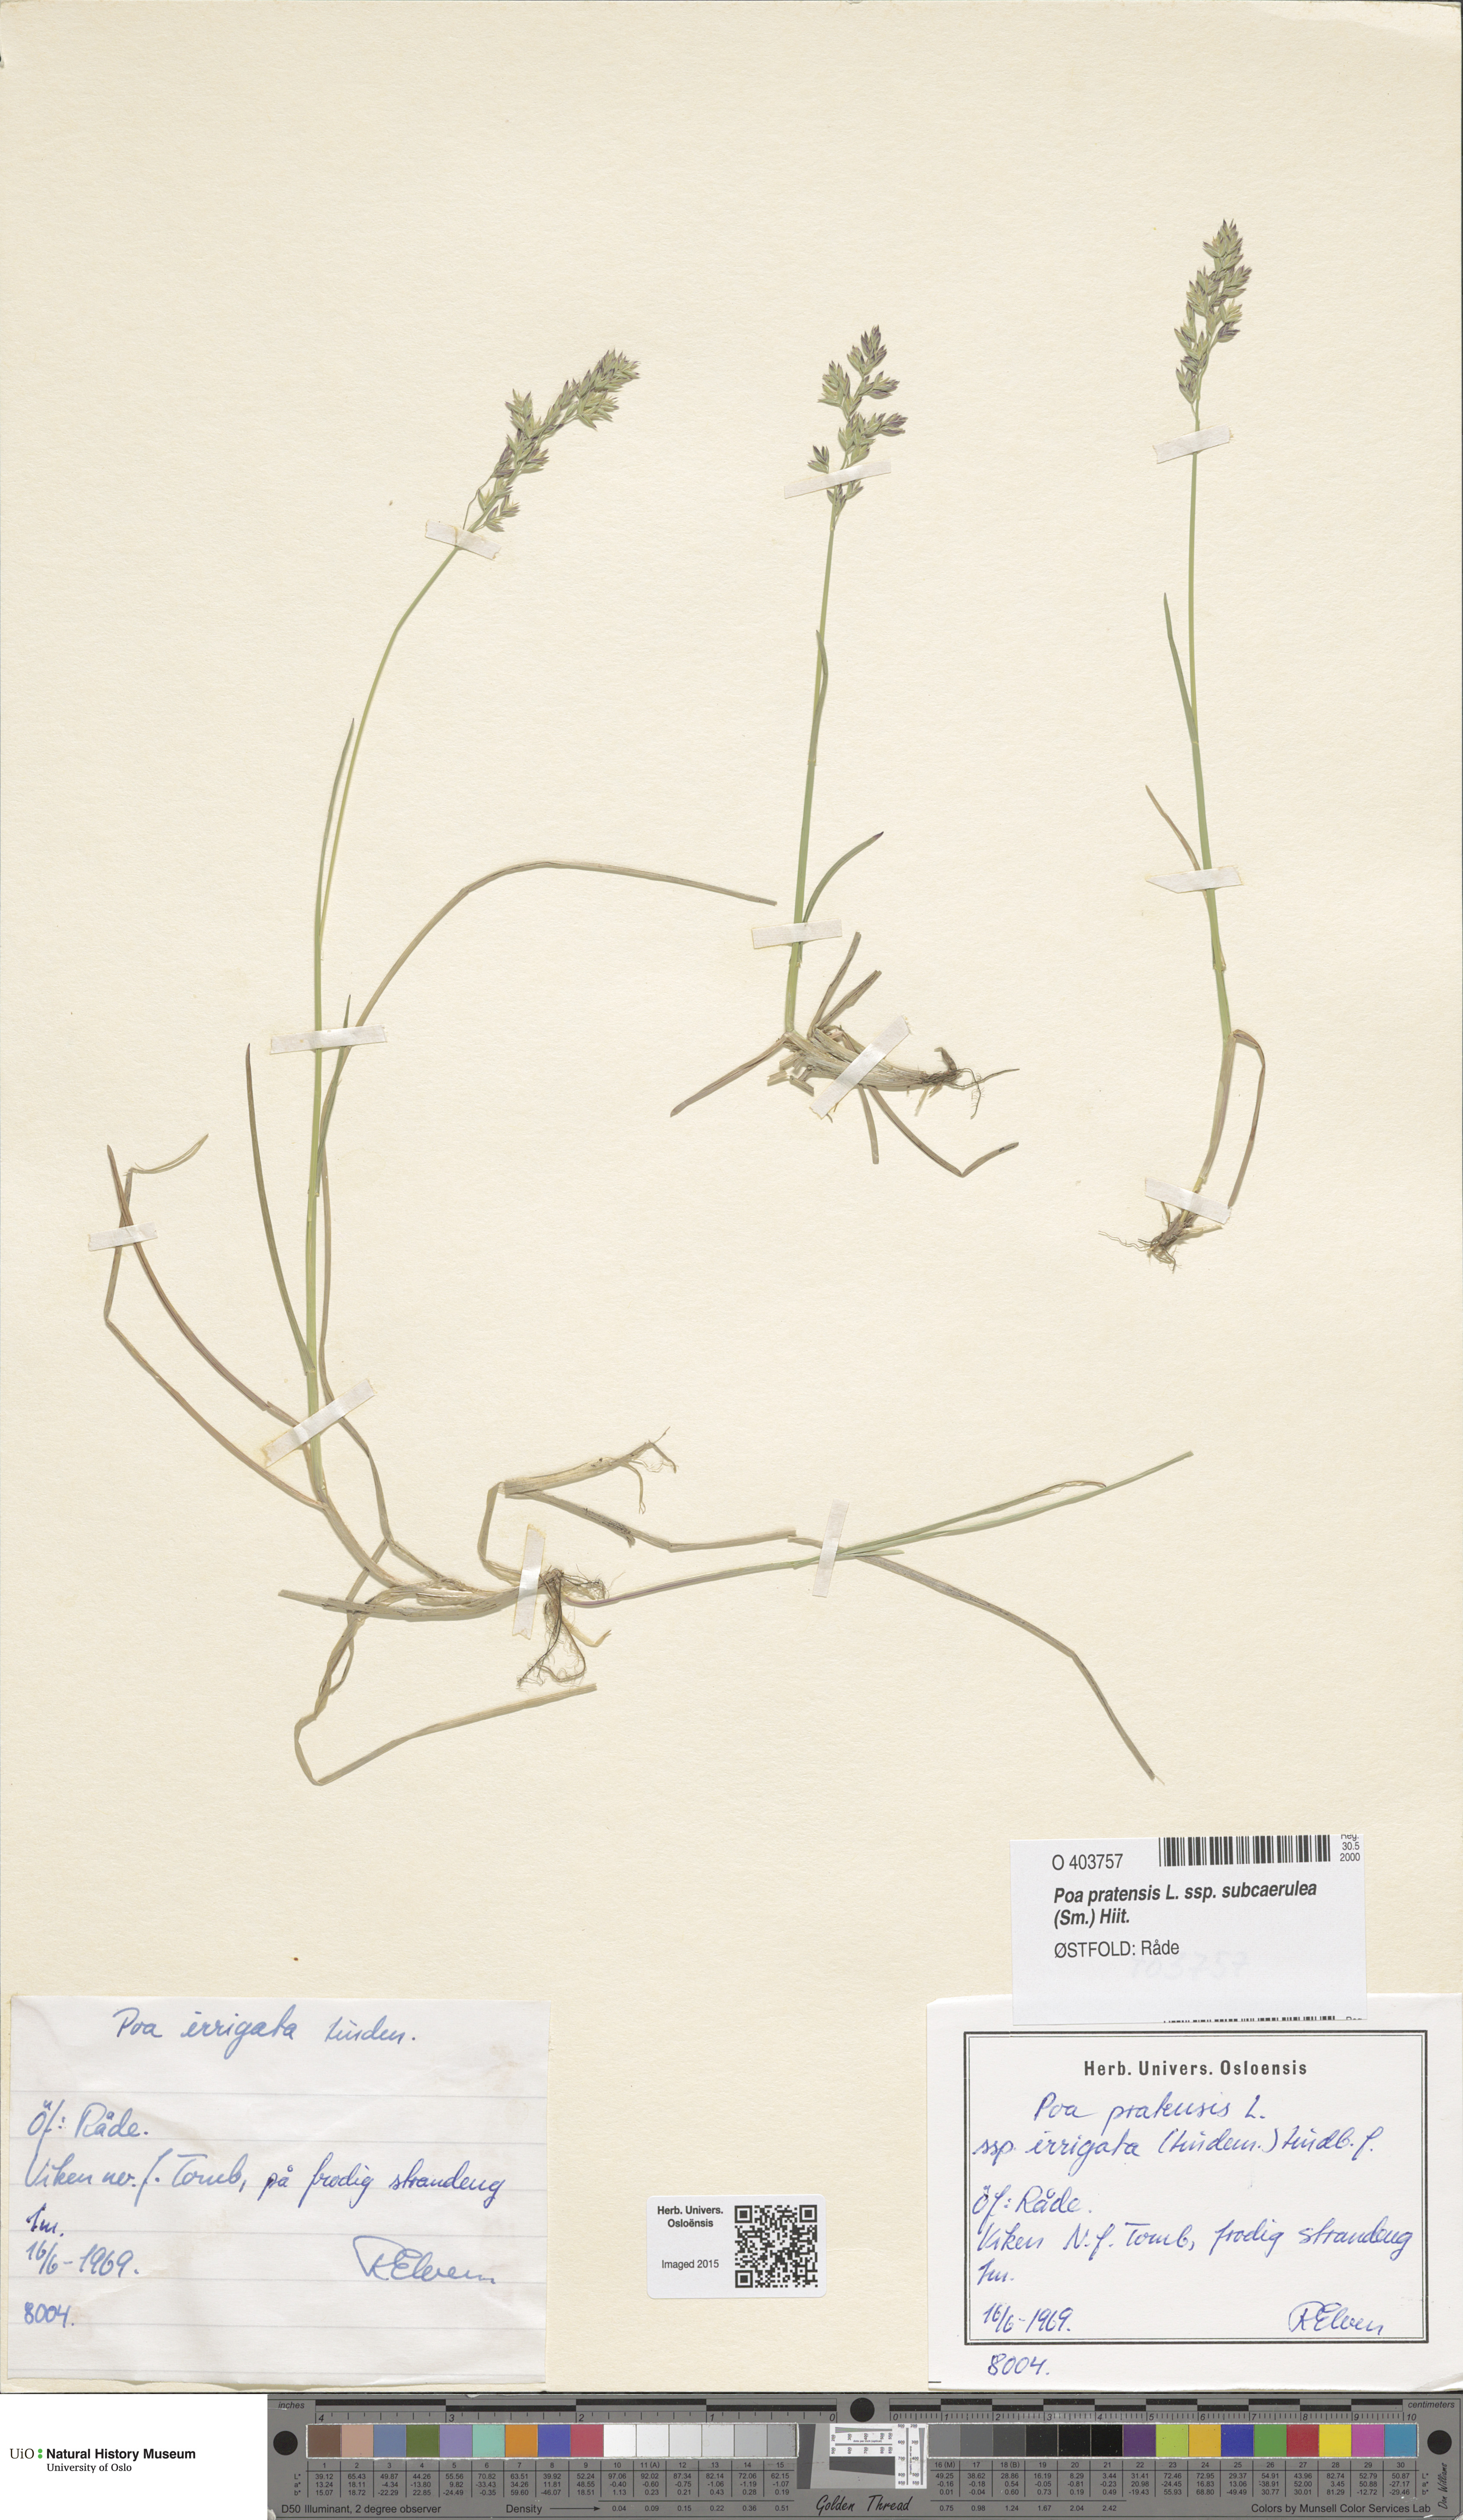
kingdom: Plantae
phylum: Tracheophyta
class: Liliopsida
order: Poales
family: Poaceae
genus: Poa
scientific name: Poa humilis
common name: Spreading meadow-grass
